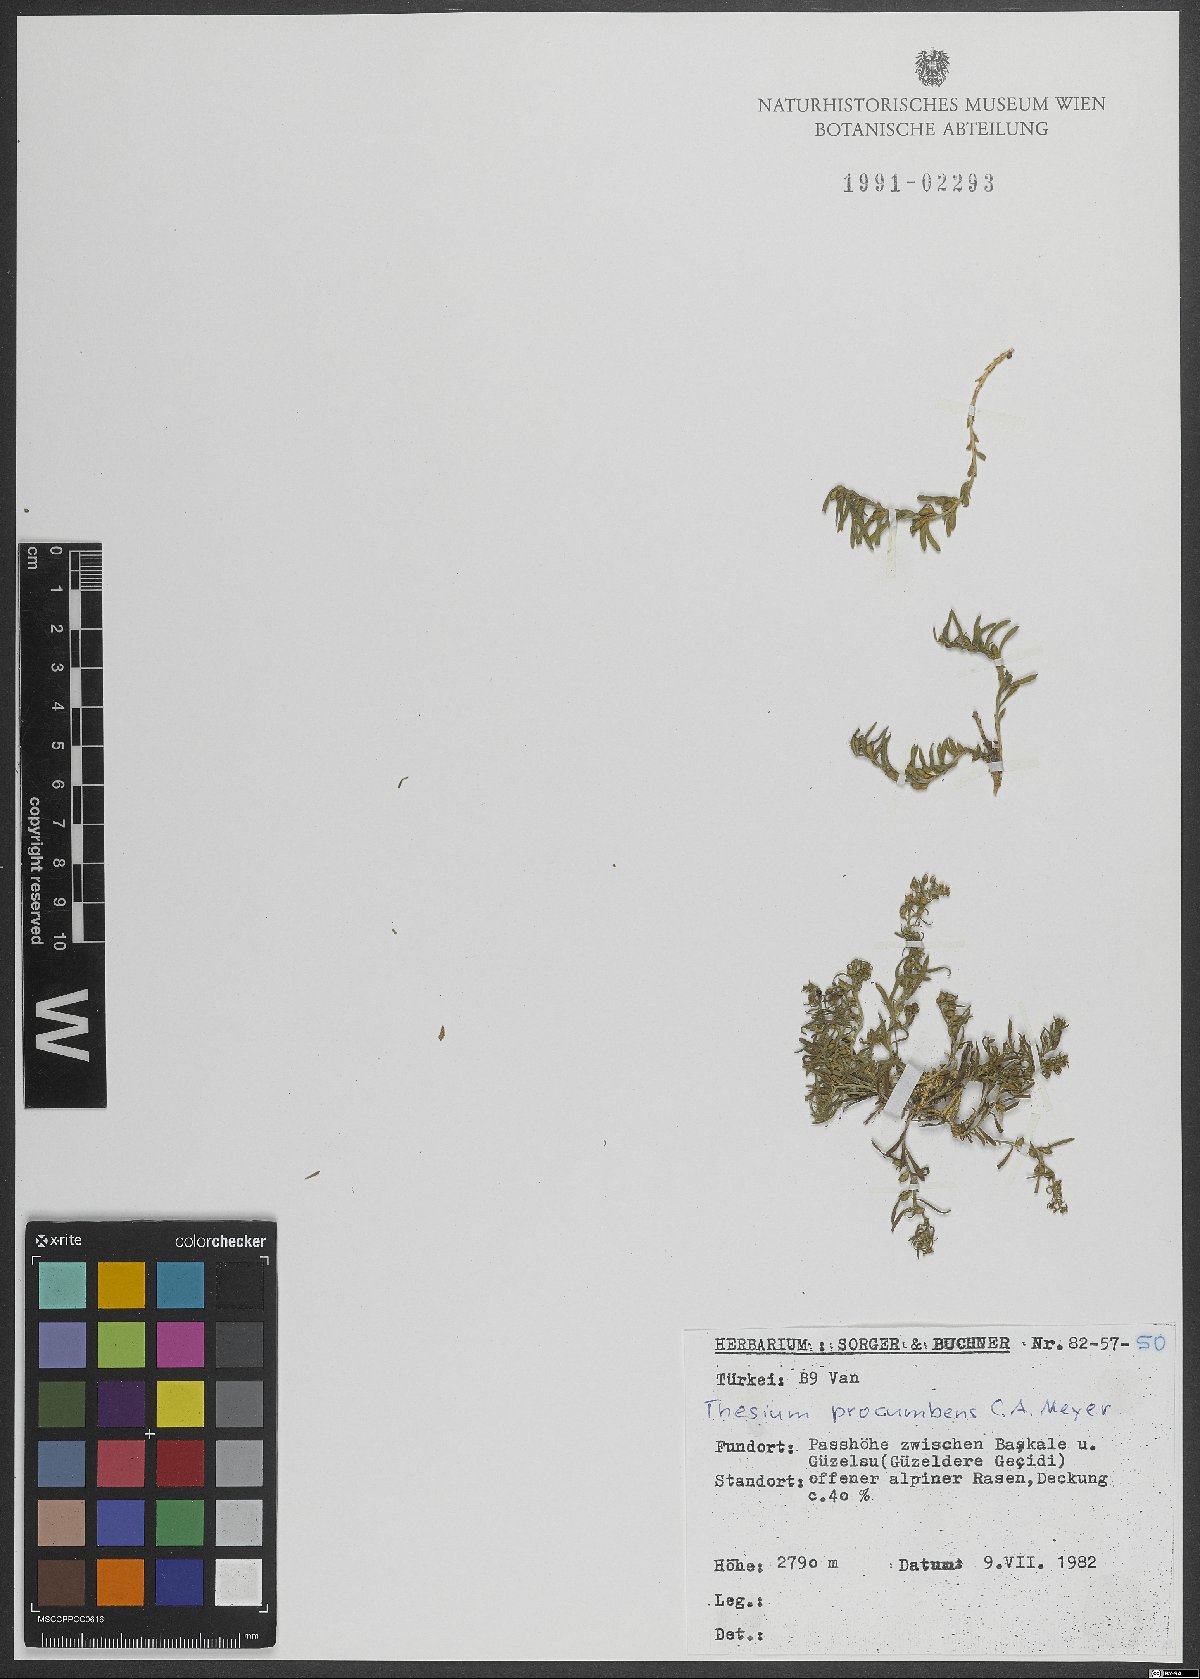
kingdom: Plantae
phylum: Tracheophyta
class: Magnoliopsida
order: Santalales
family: Thesiaceae
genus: Thesium
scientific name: Thesium procumbens
